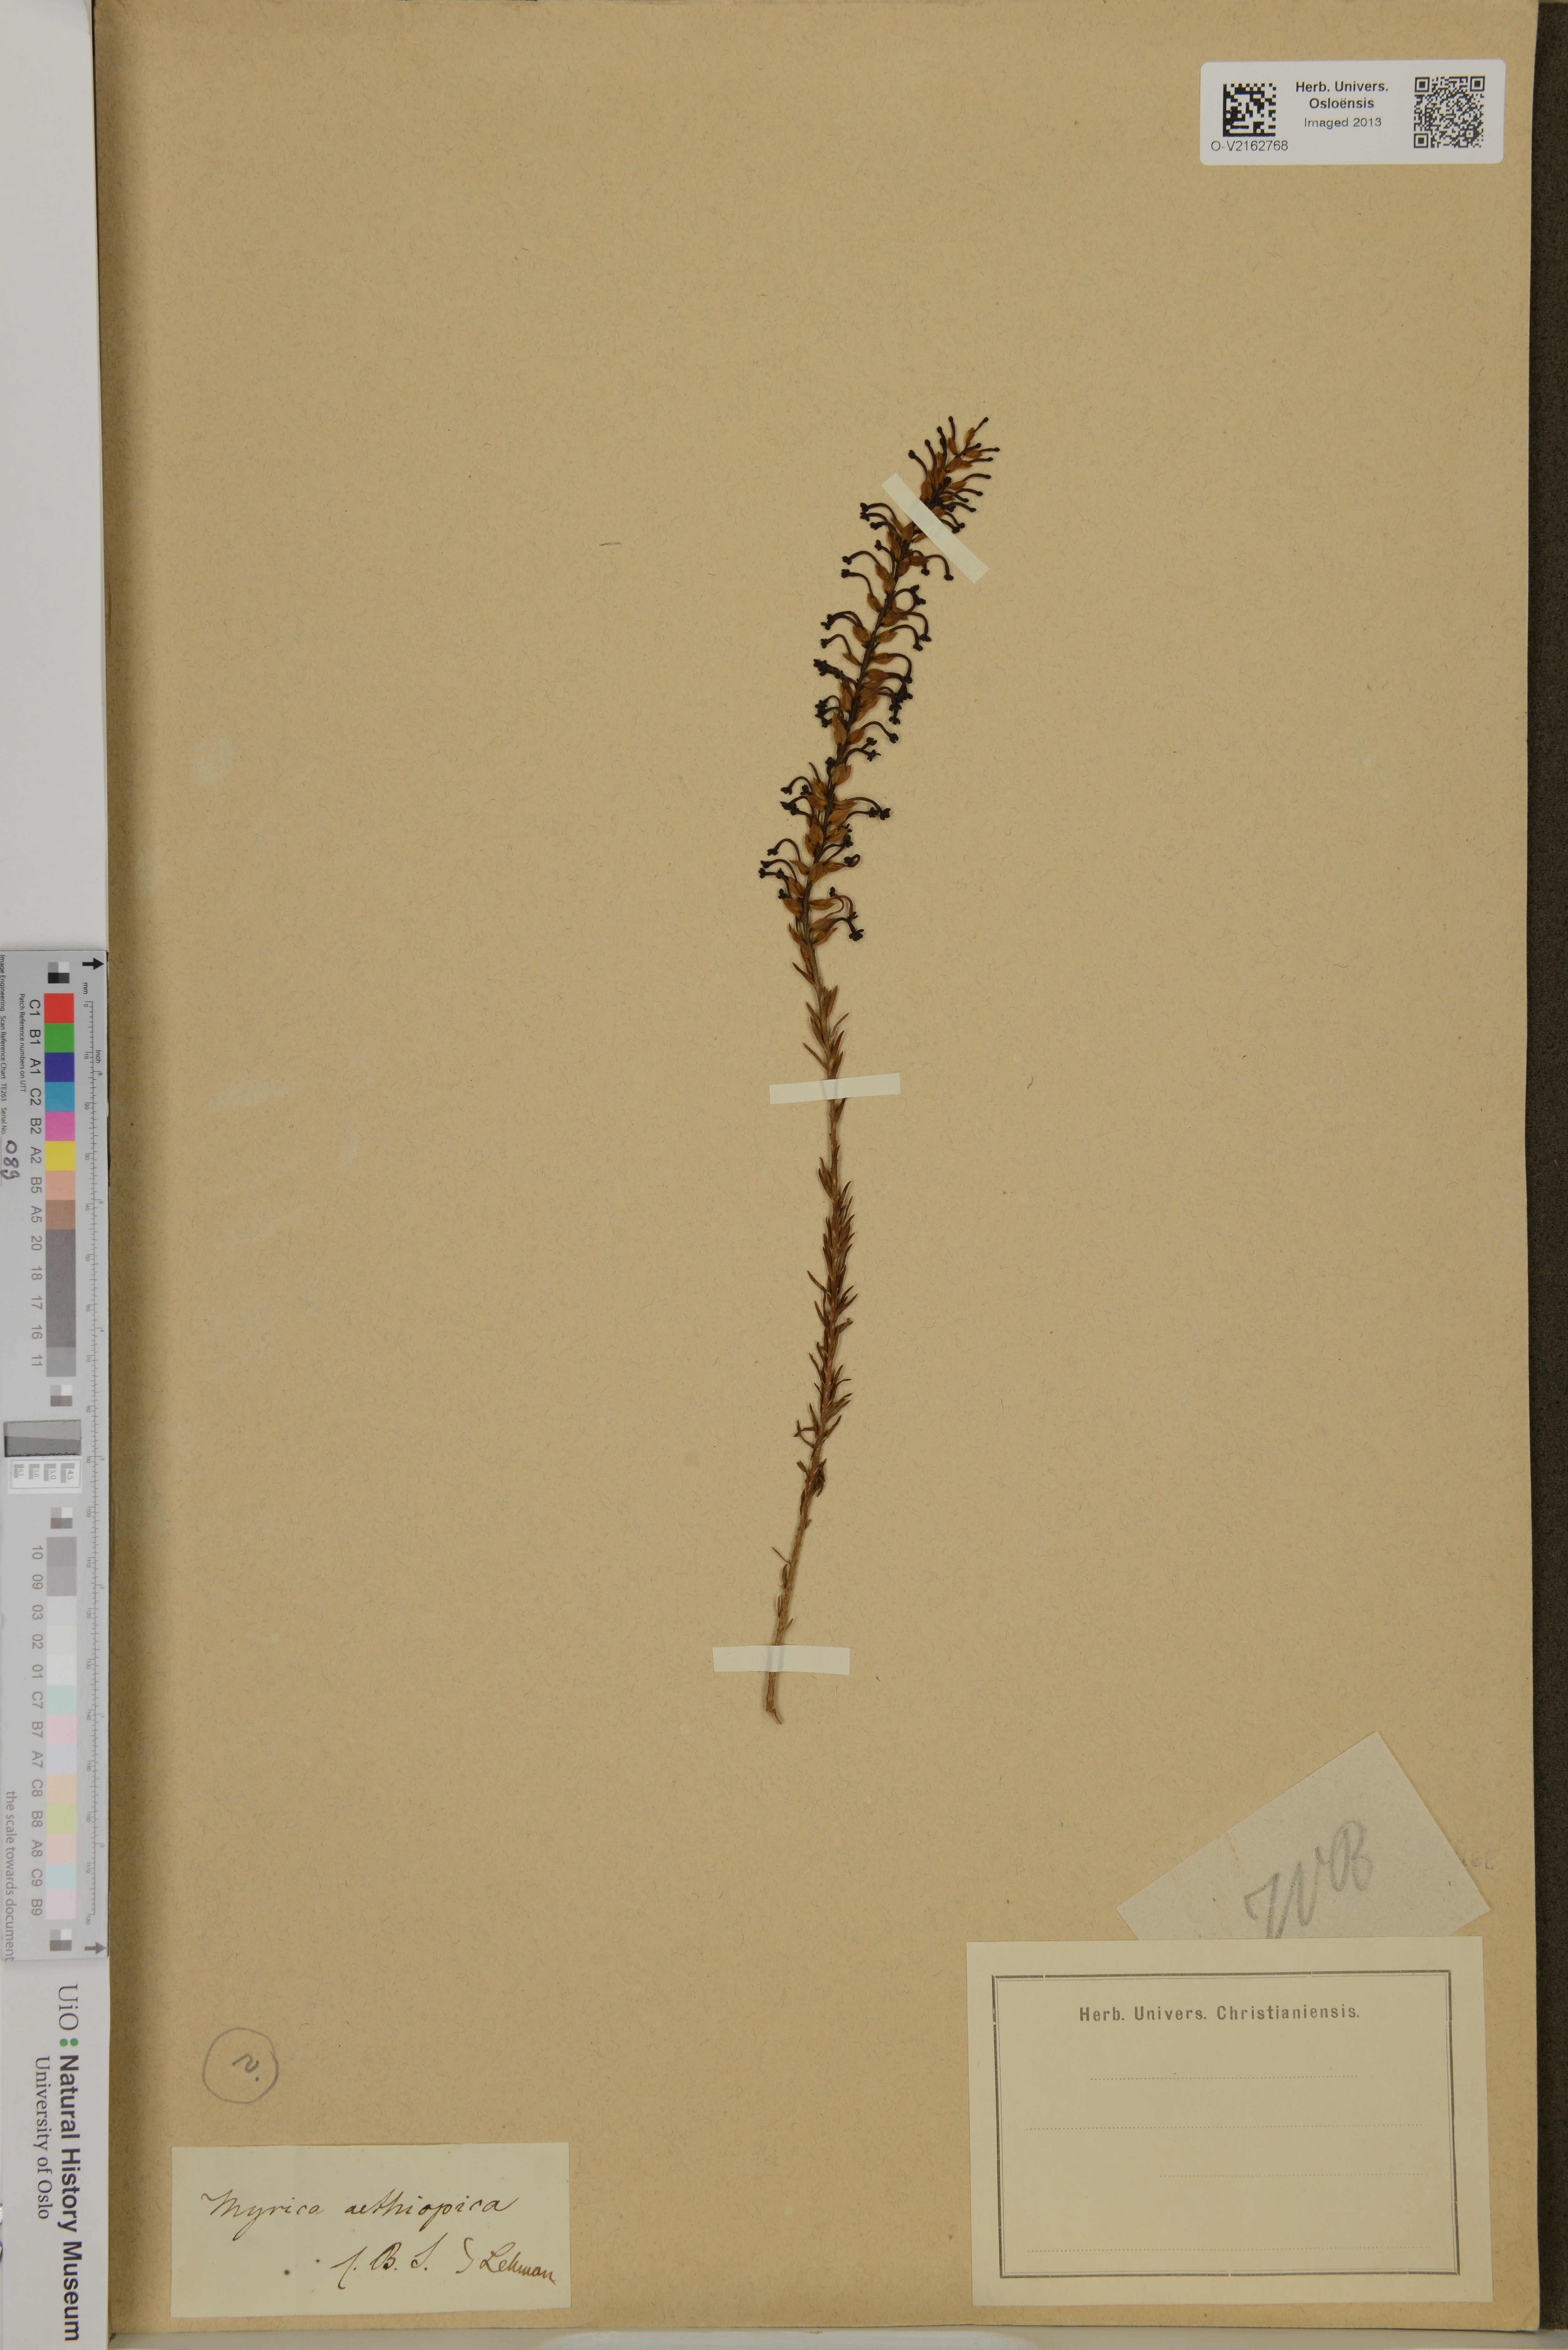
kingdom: Plantae
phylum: Tracheophyta
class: Magnoliopsida
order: Fagales
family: Myricaceae
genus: Morella
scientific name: Morella serrata
